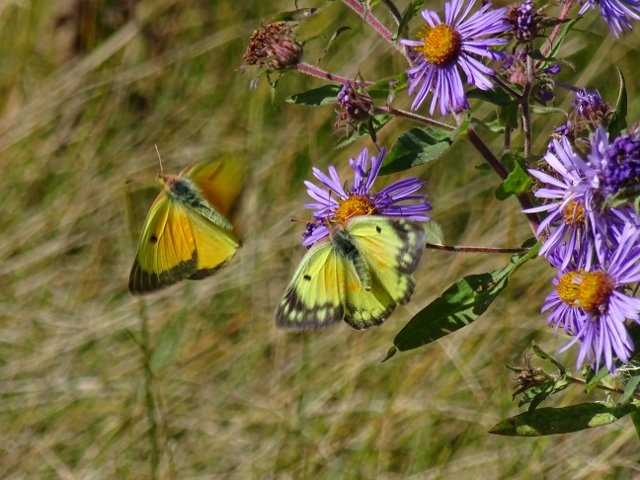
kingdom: Animalia
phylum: Arthropoda
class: Insecta
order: Lepidoptera
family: Pieridae
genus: Colias
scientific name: Colias eurytheme
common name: Orange Sulphur
